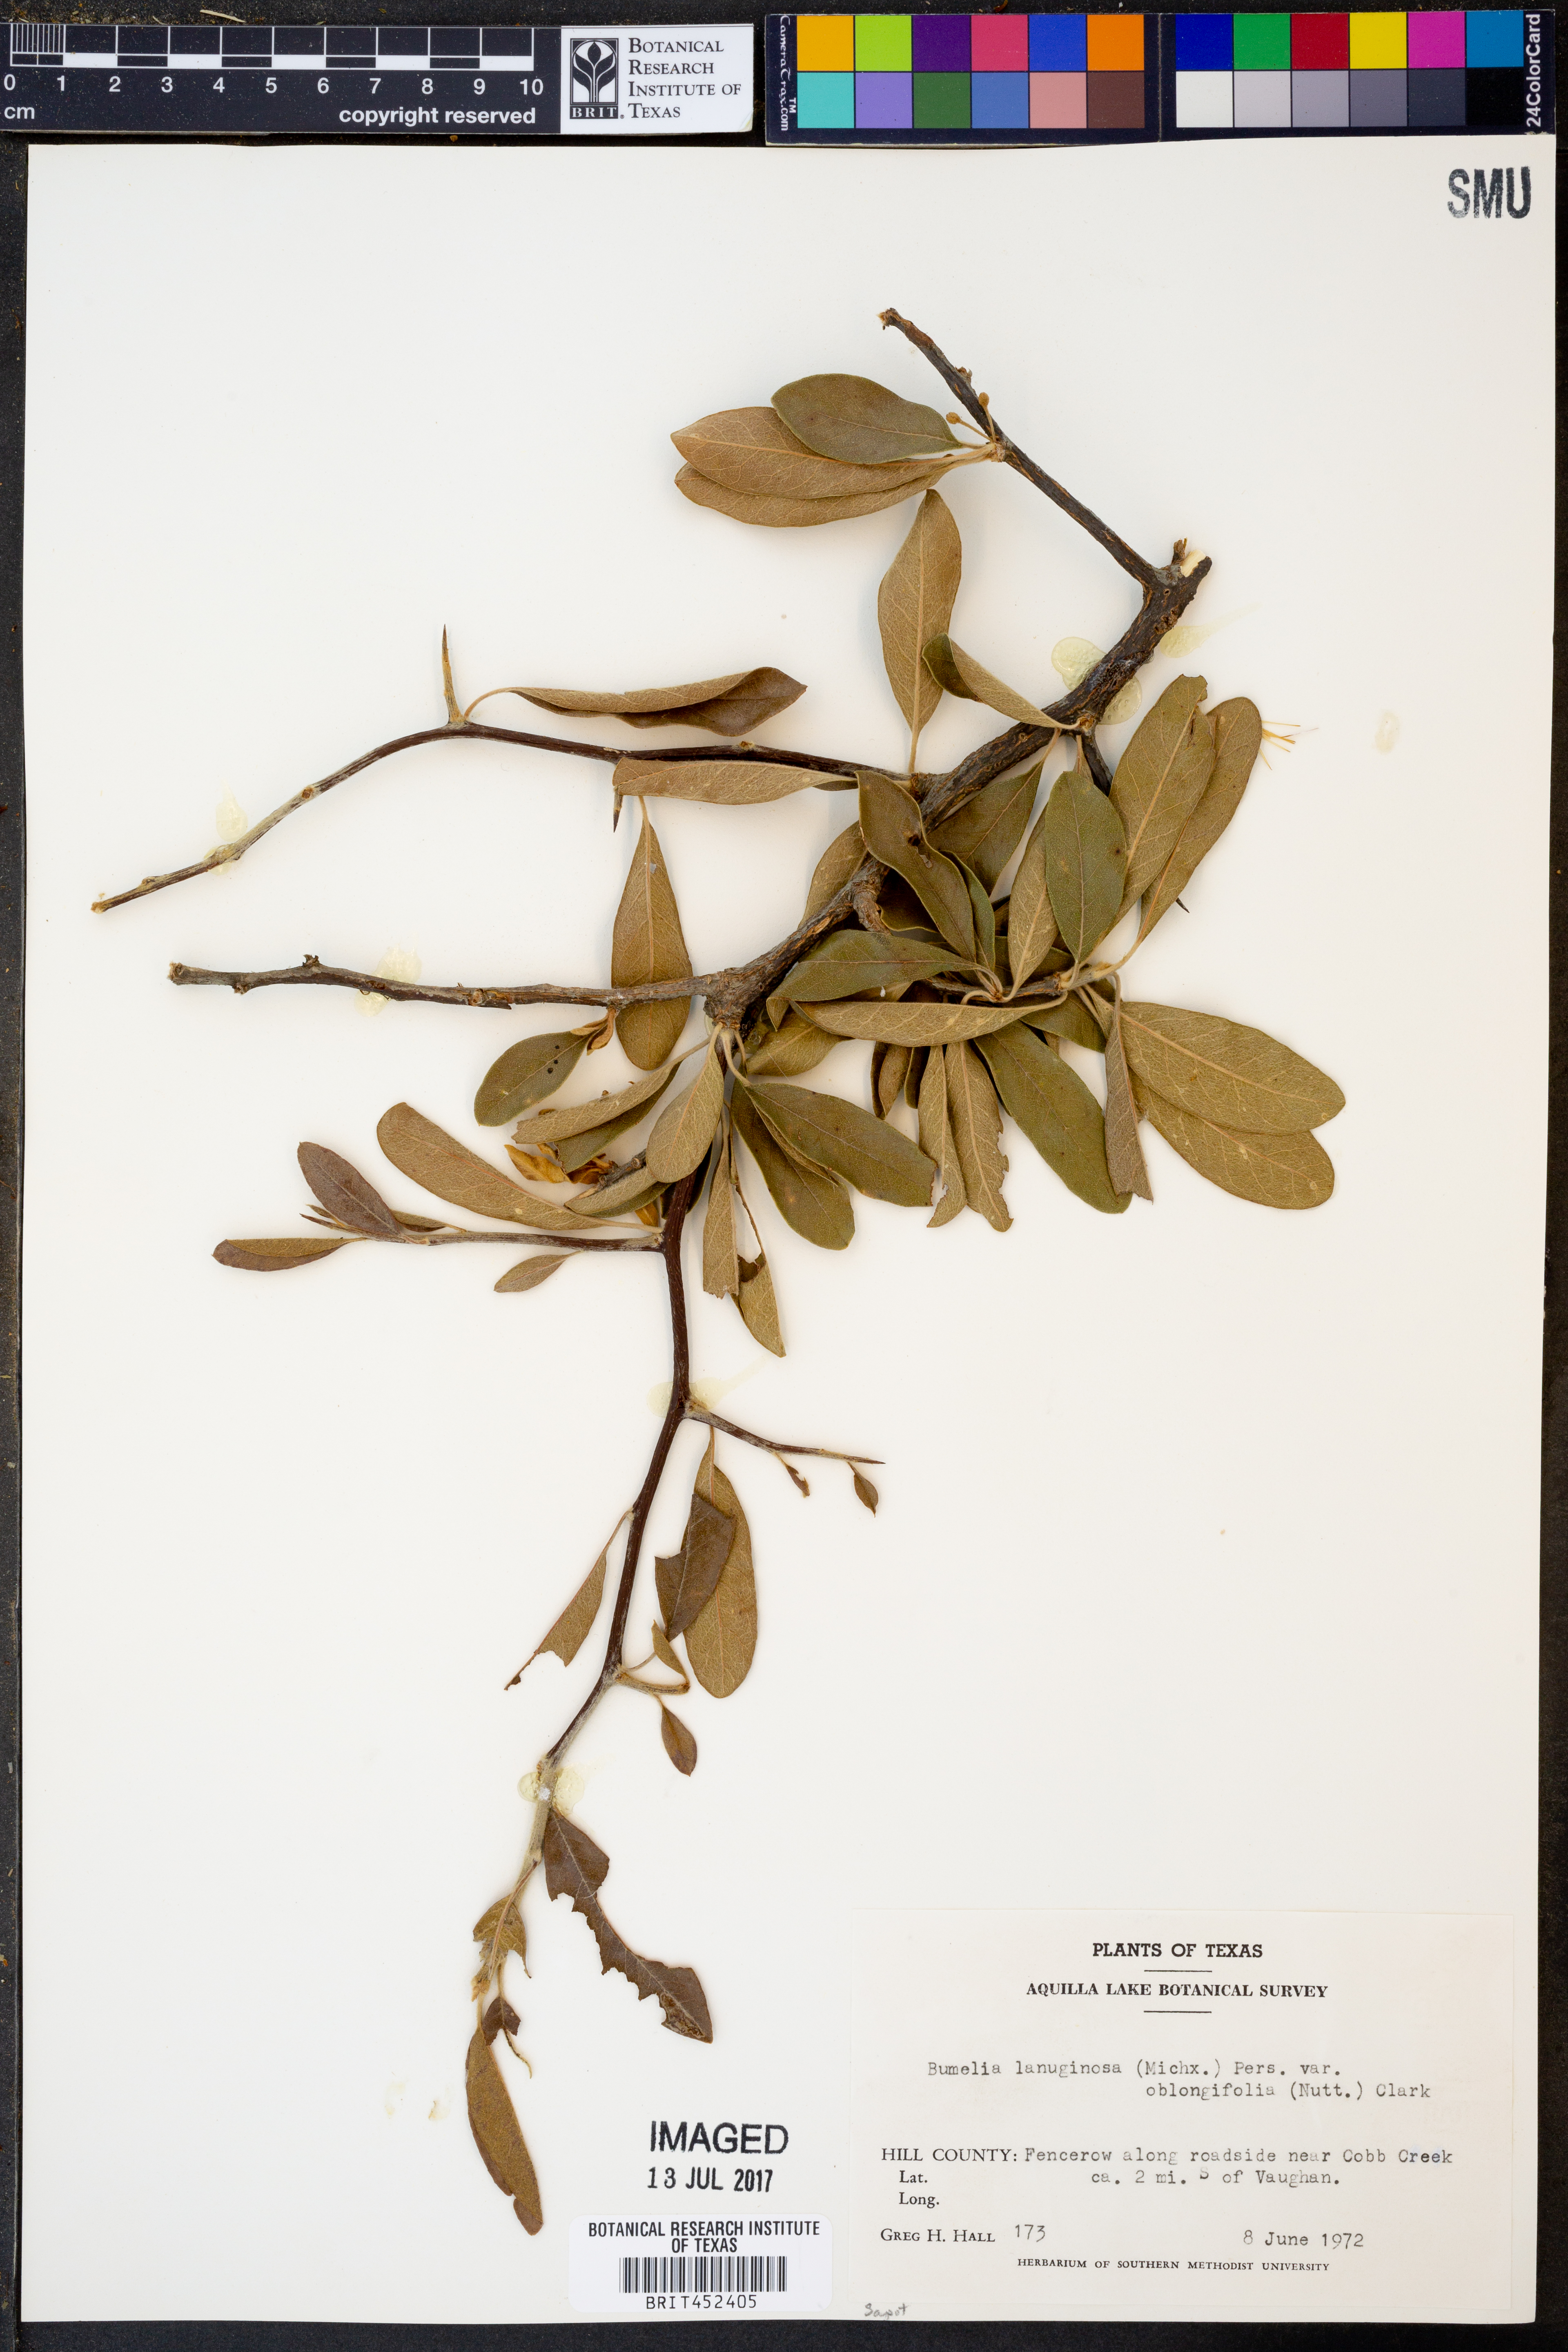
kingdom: Plantae
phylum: Tracheophyta
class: Magnoliopsida
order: Ericales
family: Sapotaceae
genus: Sideroxylon
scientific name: Sideroxylon lanuginosum
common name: Chittamwood
